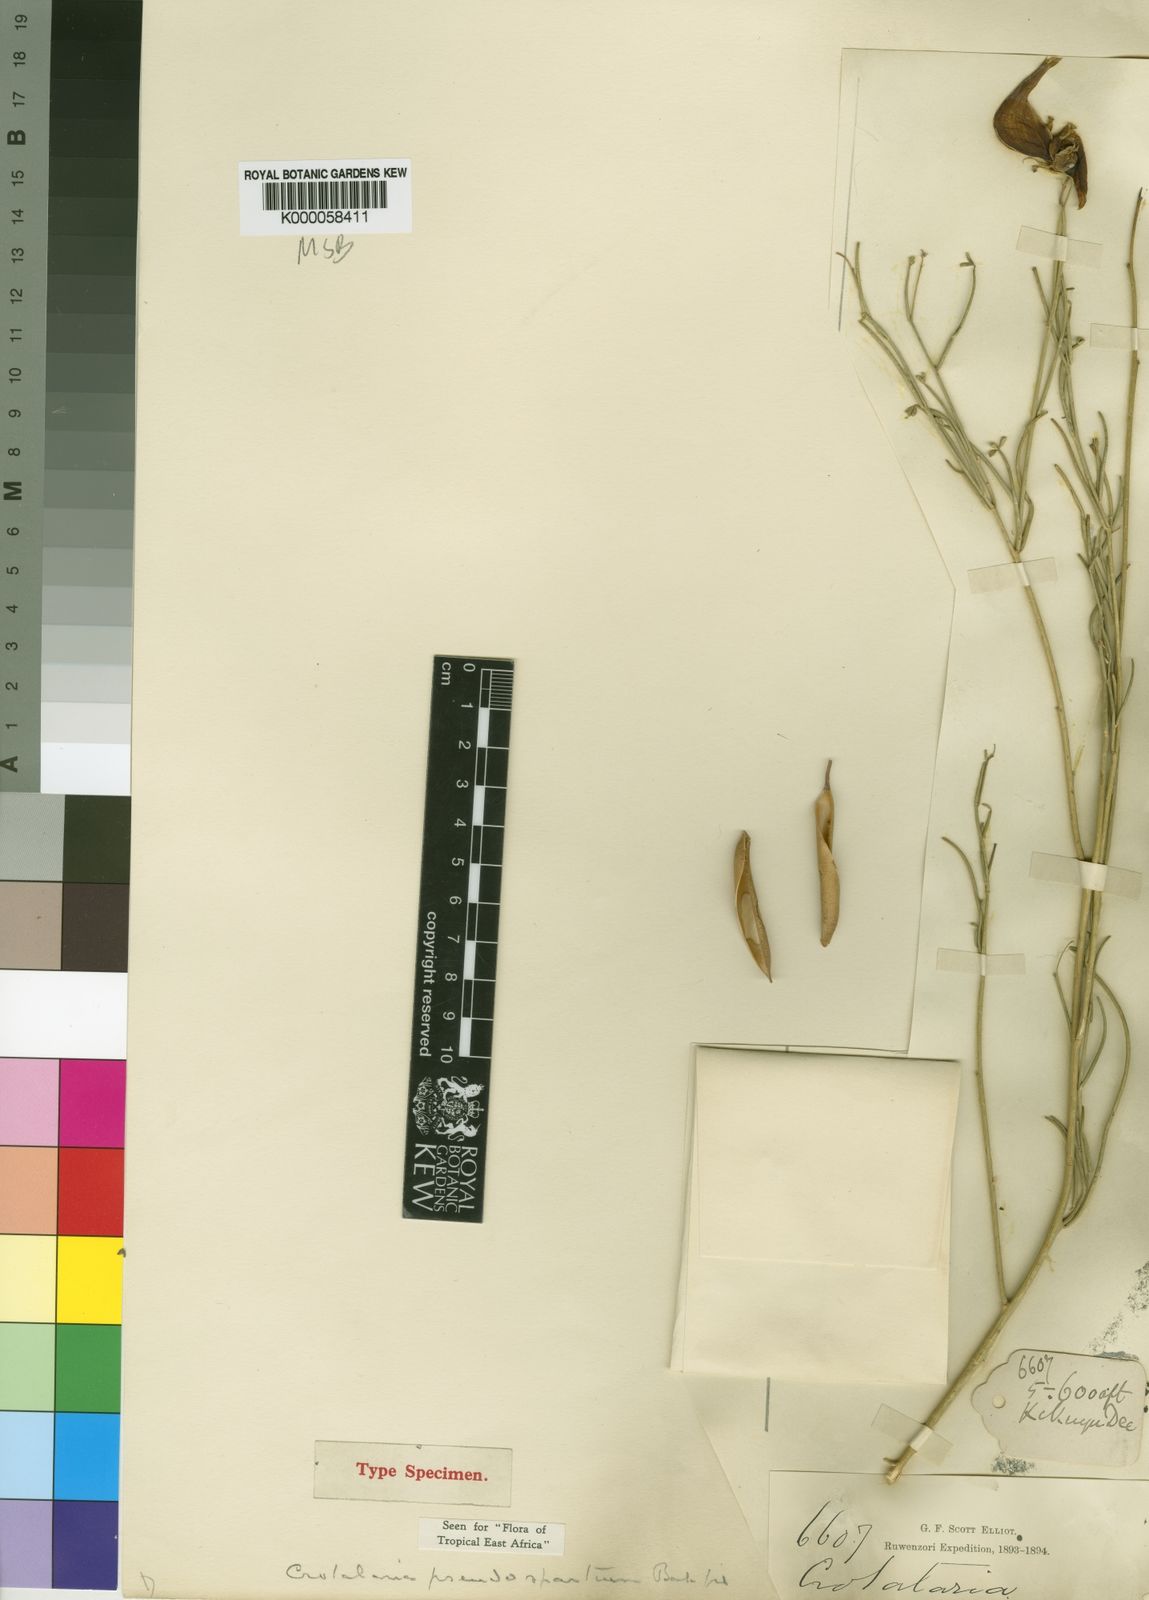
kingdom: Plantae
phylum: Tracheophyta
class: Magnoliopsida
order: Fabales
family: Fabaceae
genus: Crotalaria
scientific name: Crotalaria pseudospartium
